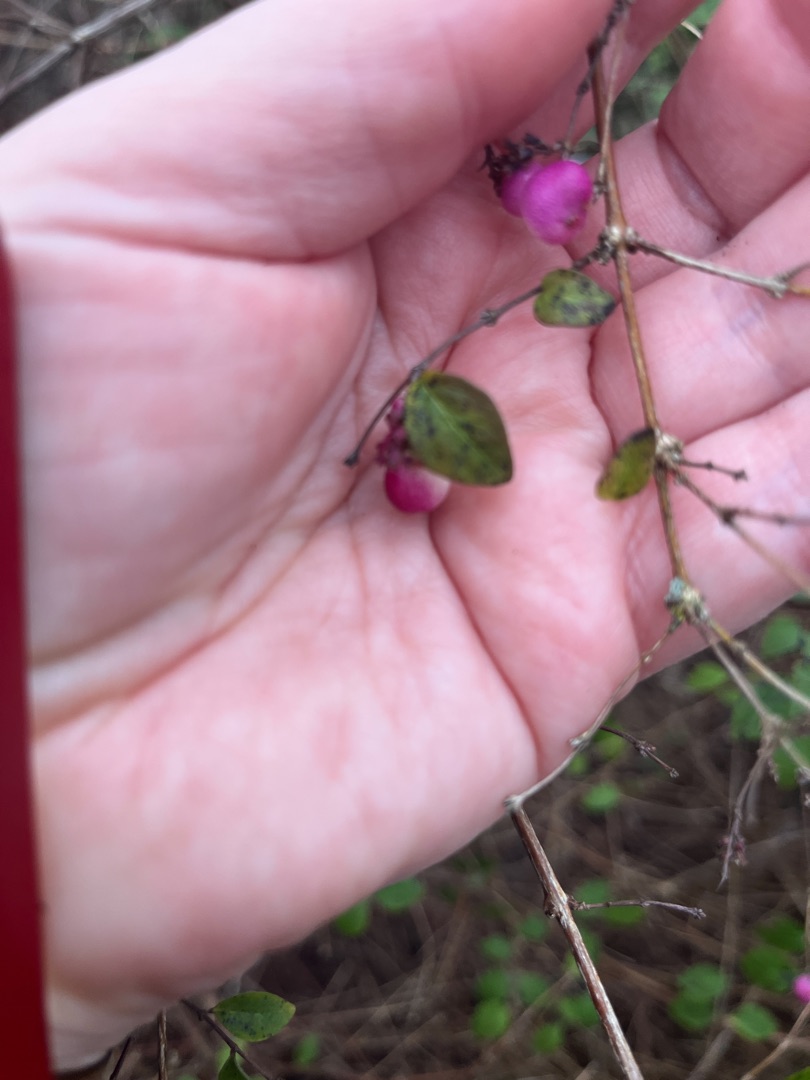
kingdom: Plantae
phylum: Tracheophyta
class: Magnoliopsida
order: Dipsacales
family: Caprifoliaceae
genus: Symphoricarpos
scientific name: Symphoricarpos chenaultii
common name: Rød snebær
